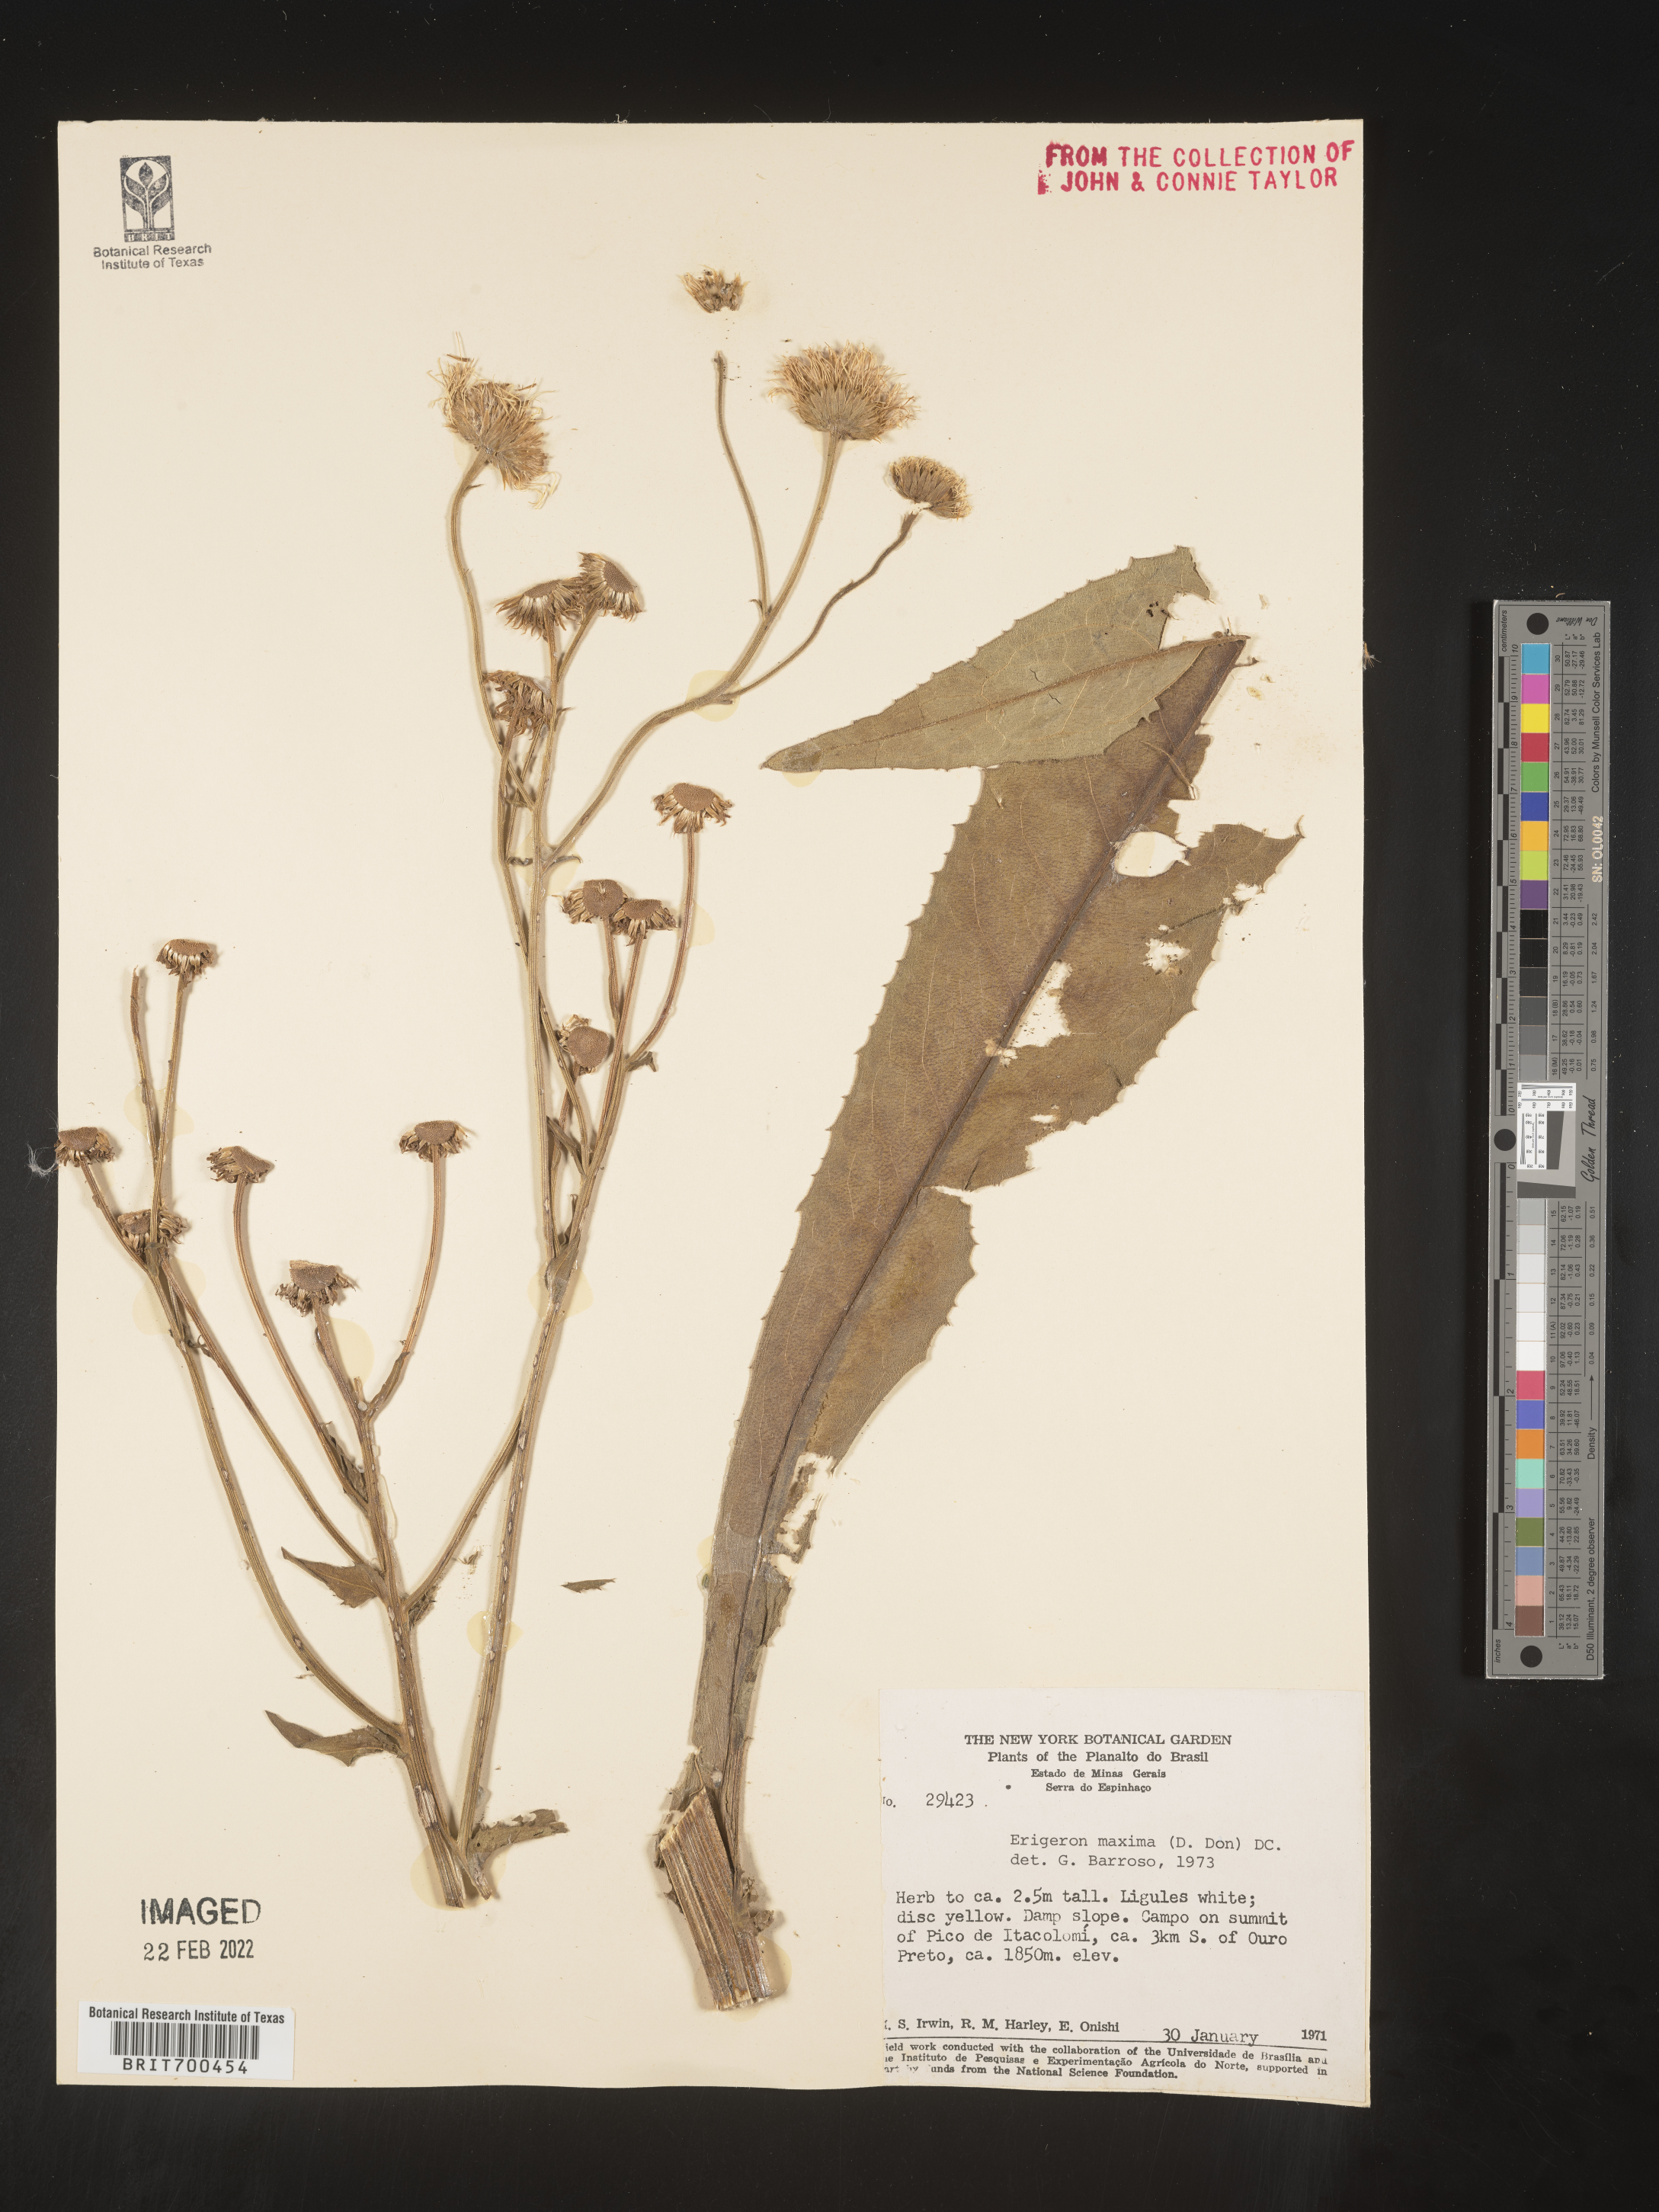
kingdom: Plantae
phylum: Tracheophyta
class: Magnoliopsida
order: Asterales
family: Asteraceae
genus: Erigeron
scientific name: Erigeron
